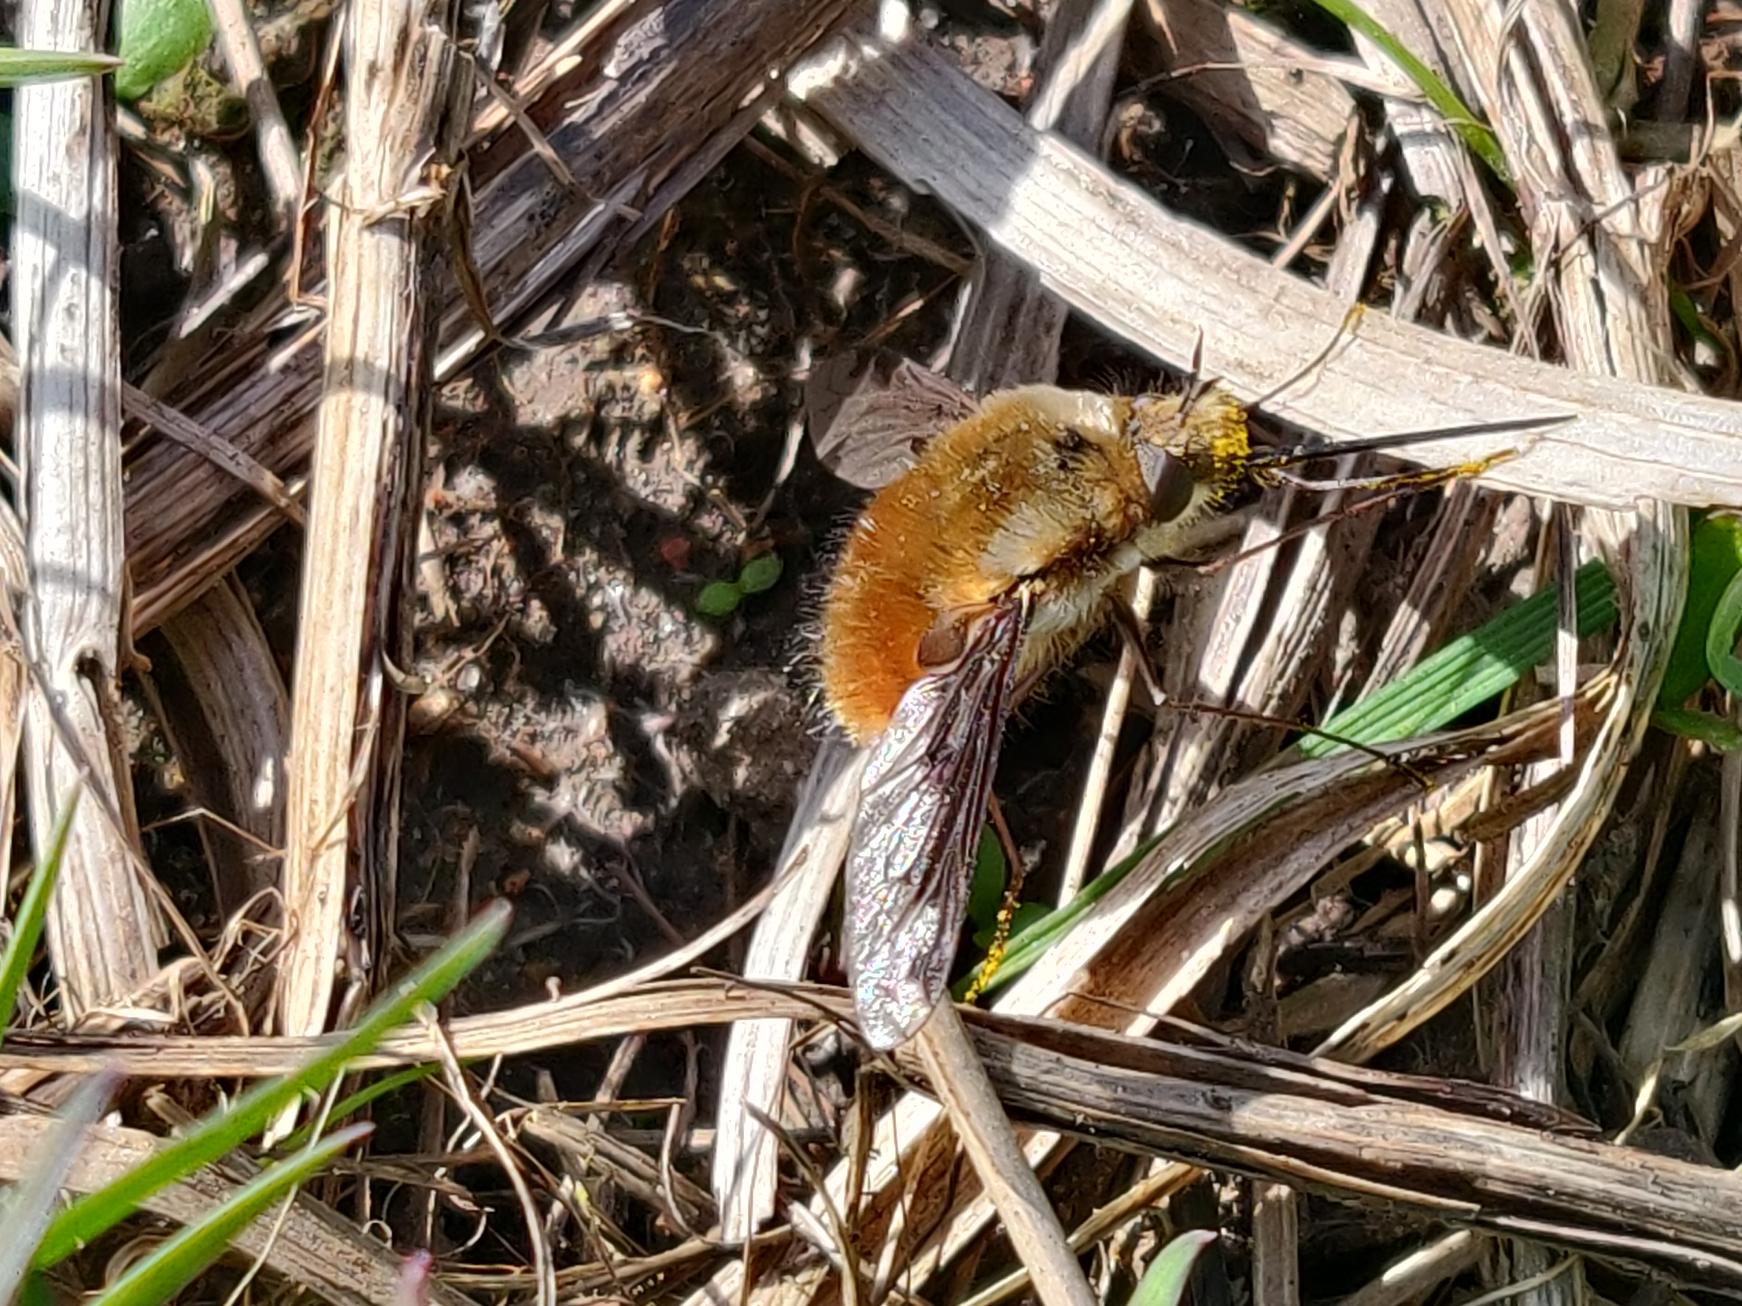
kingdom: Animalia
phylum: Arthropoda
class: Insecta
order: Diptera
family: Bombyliidae
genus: Bombylius
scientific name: Bombylius major
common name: Stor humleflue
